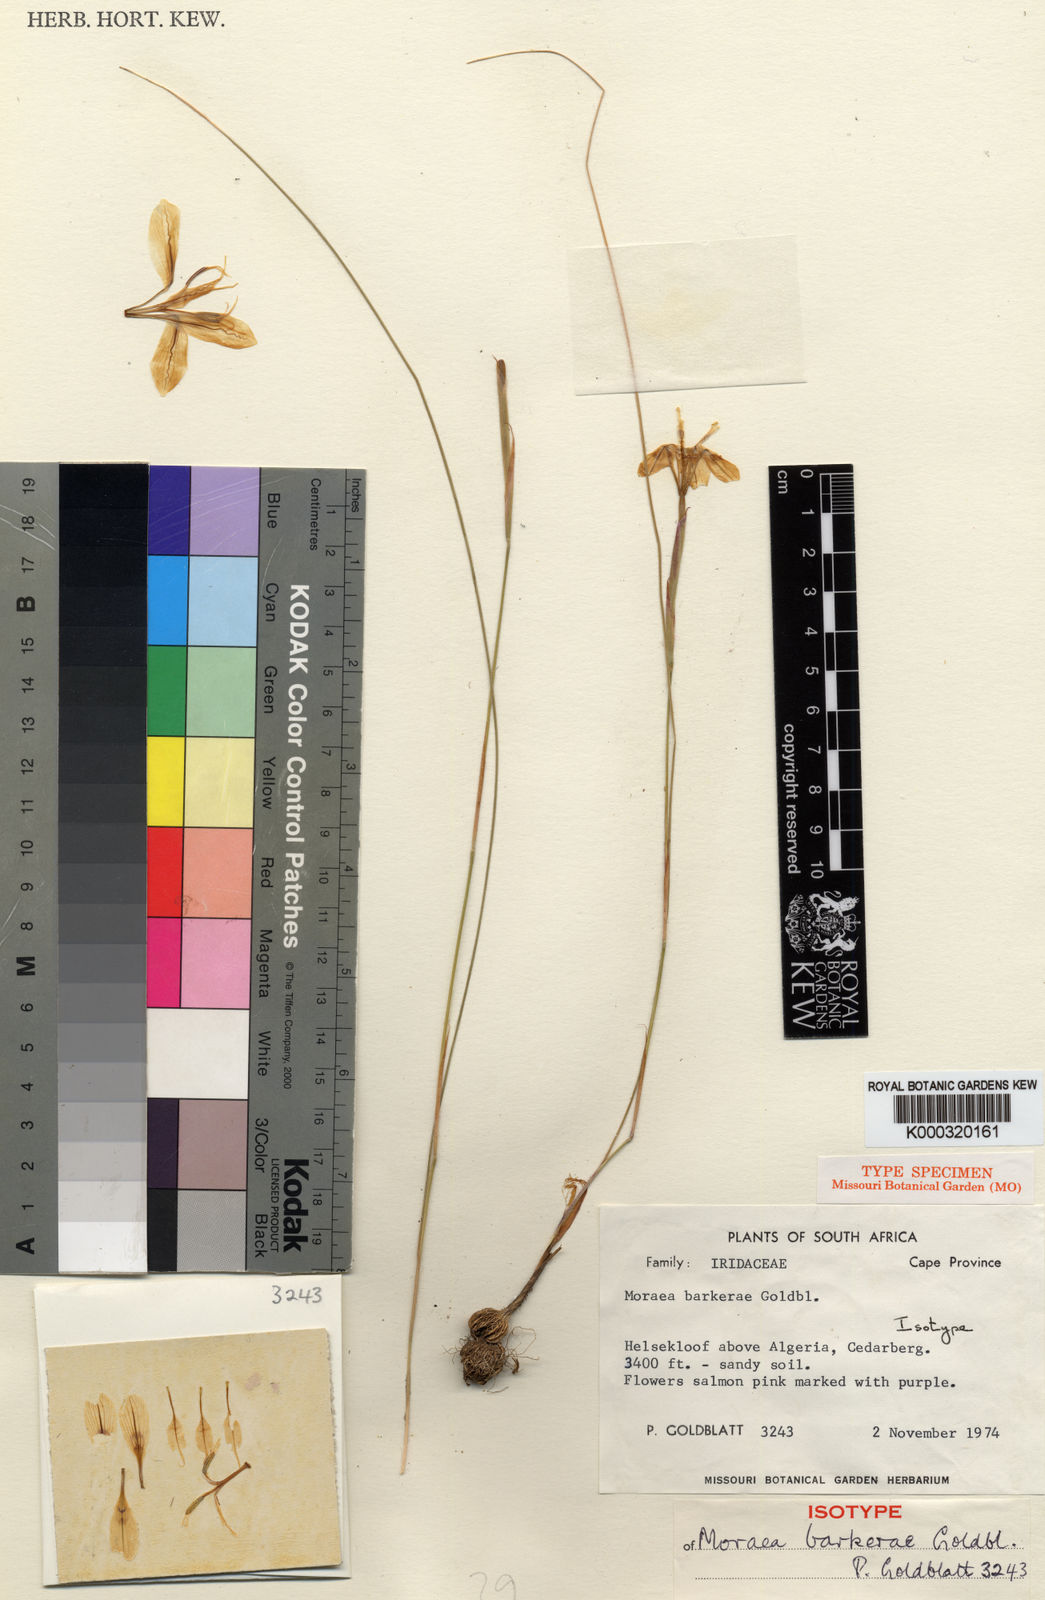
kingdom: Plantae
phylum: Tracheophyta
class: Liliopsida
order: Asparagales
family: Iridaceae
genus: Moraea
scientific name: Moraea barkerae
